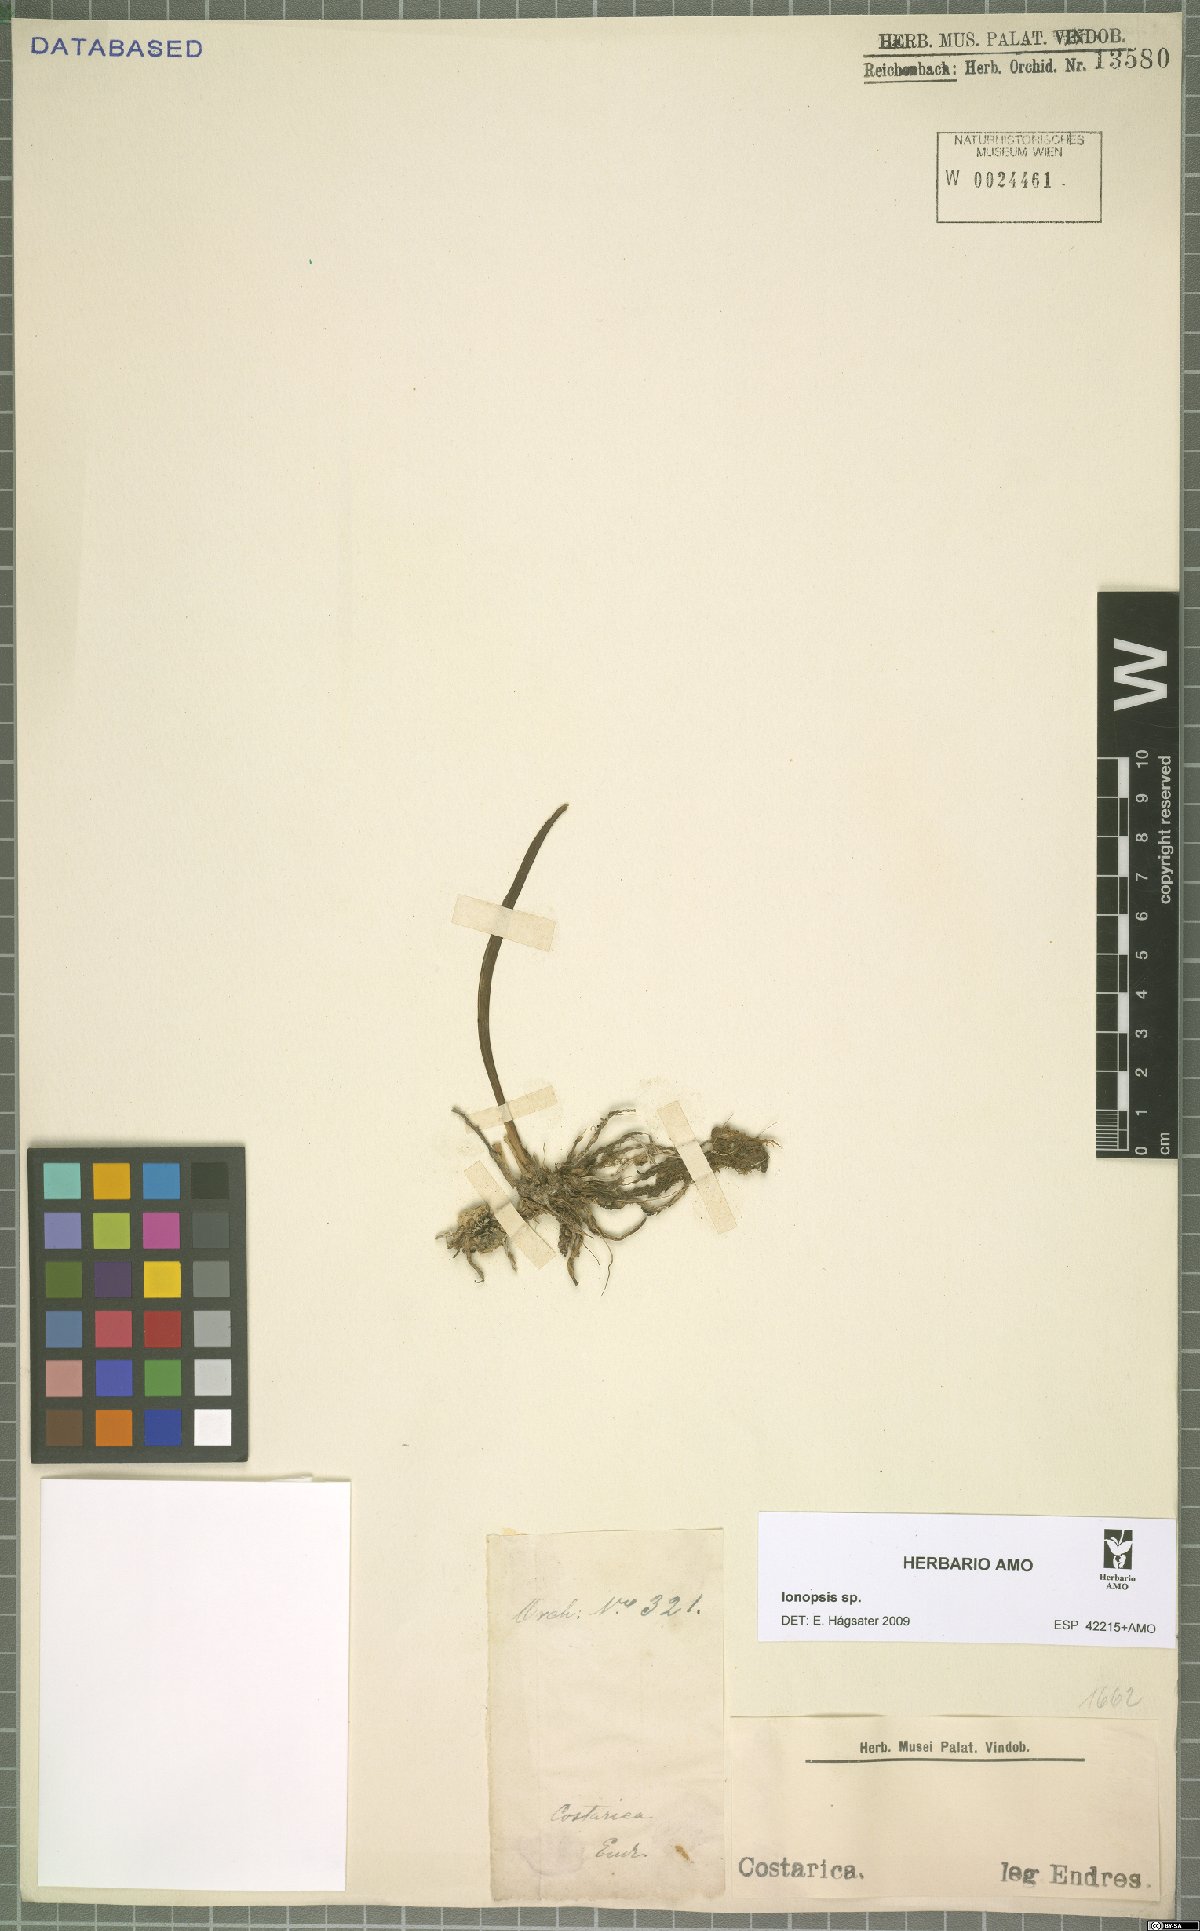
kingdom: Plantae
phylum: Tracheophyta
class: Liliopsida
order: Asparagales
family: Orchidaceae
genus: Ionopsis
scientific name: Ionopsis
